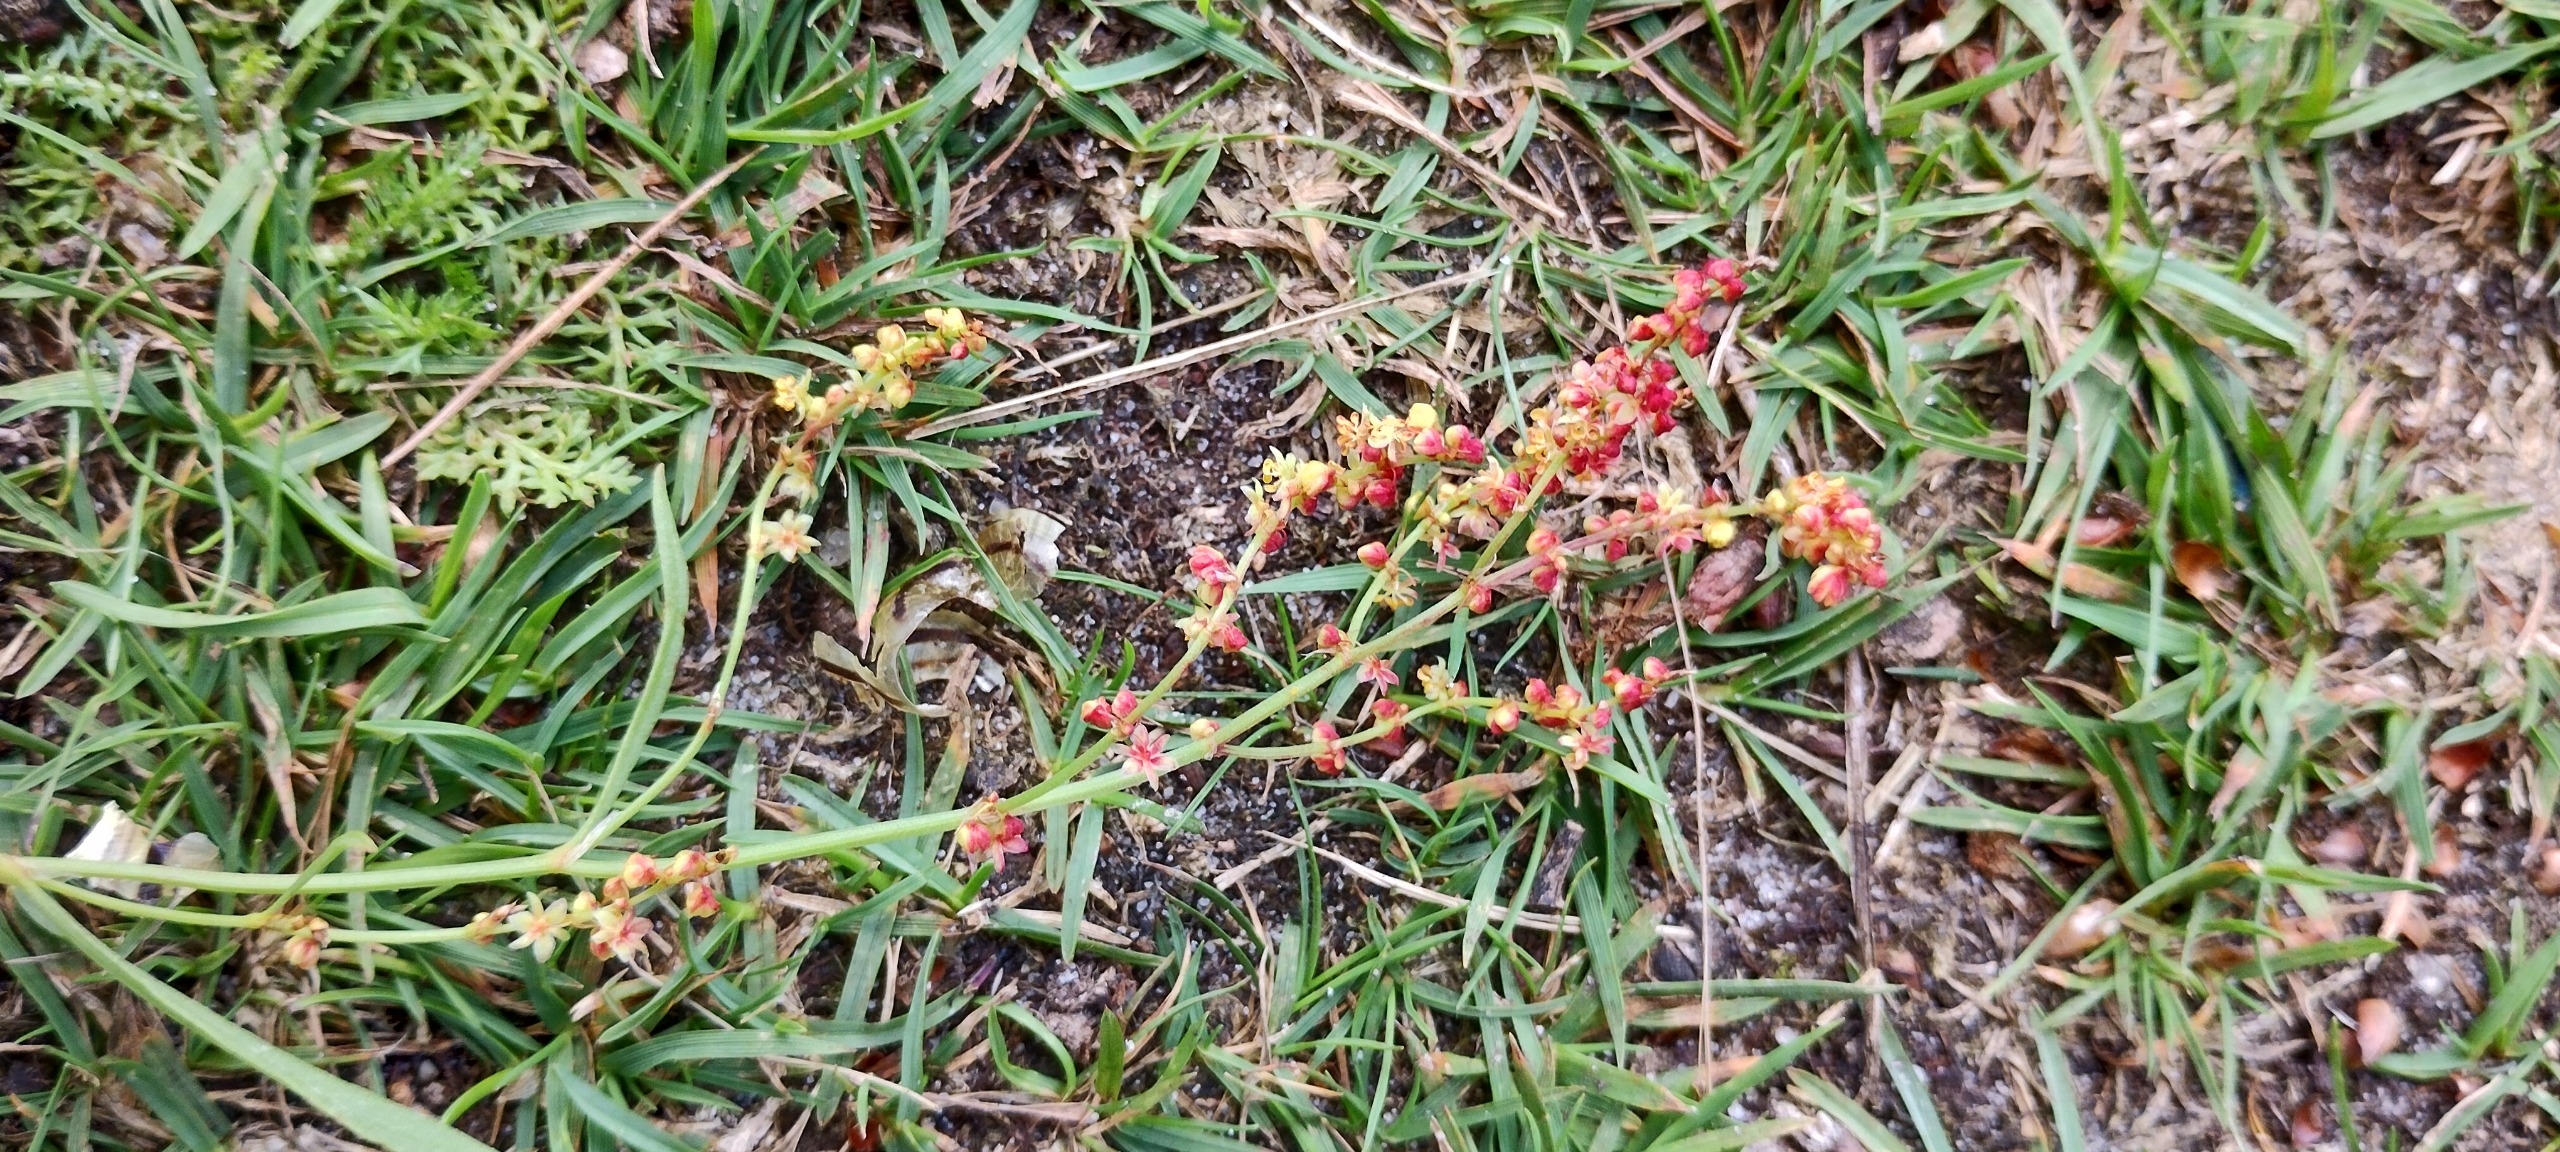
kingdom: Plantae
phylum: Tracheophyta
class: Magnoliopsida
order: Caryophyllales
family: Polygonaceae
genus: Rumex
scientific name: Rumex acetosella
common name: Rødknæ
